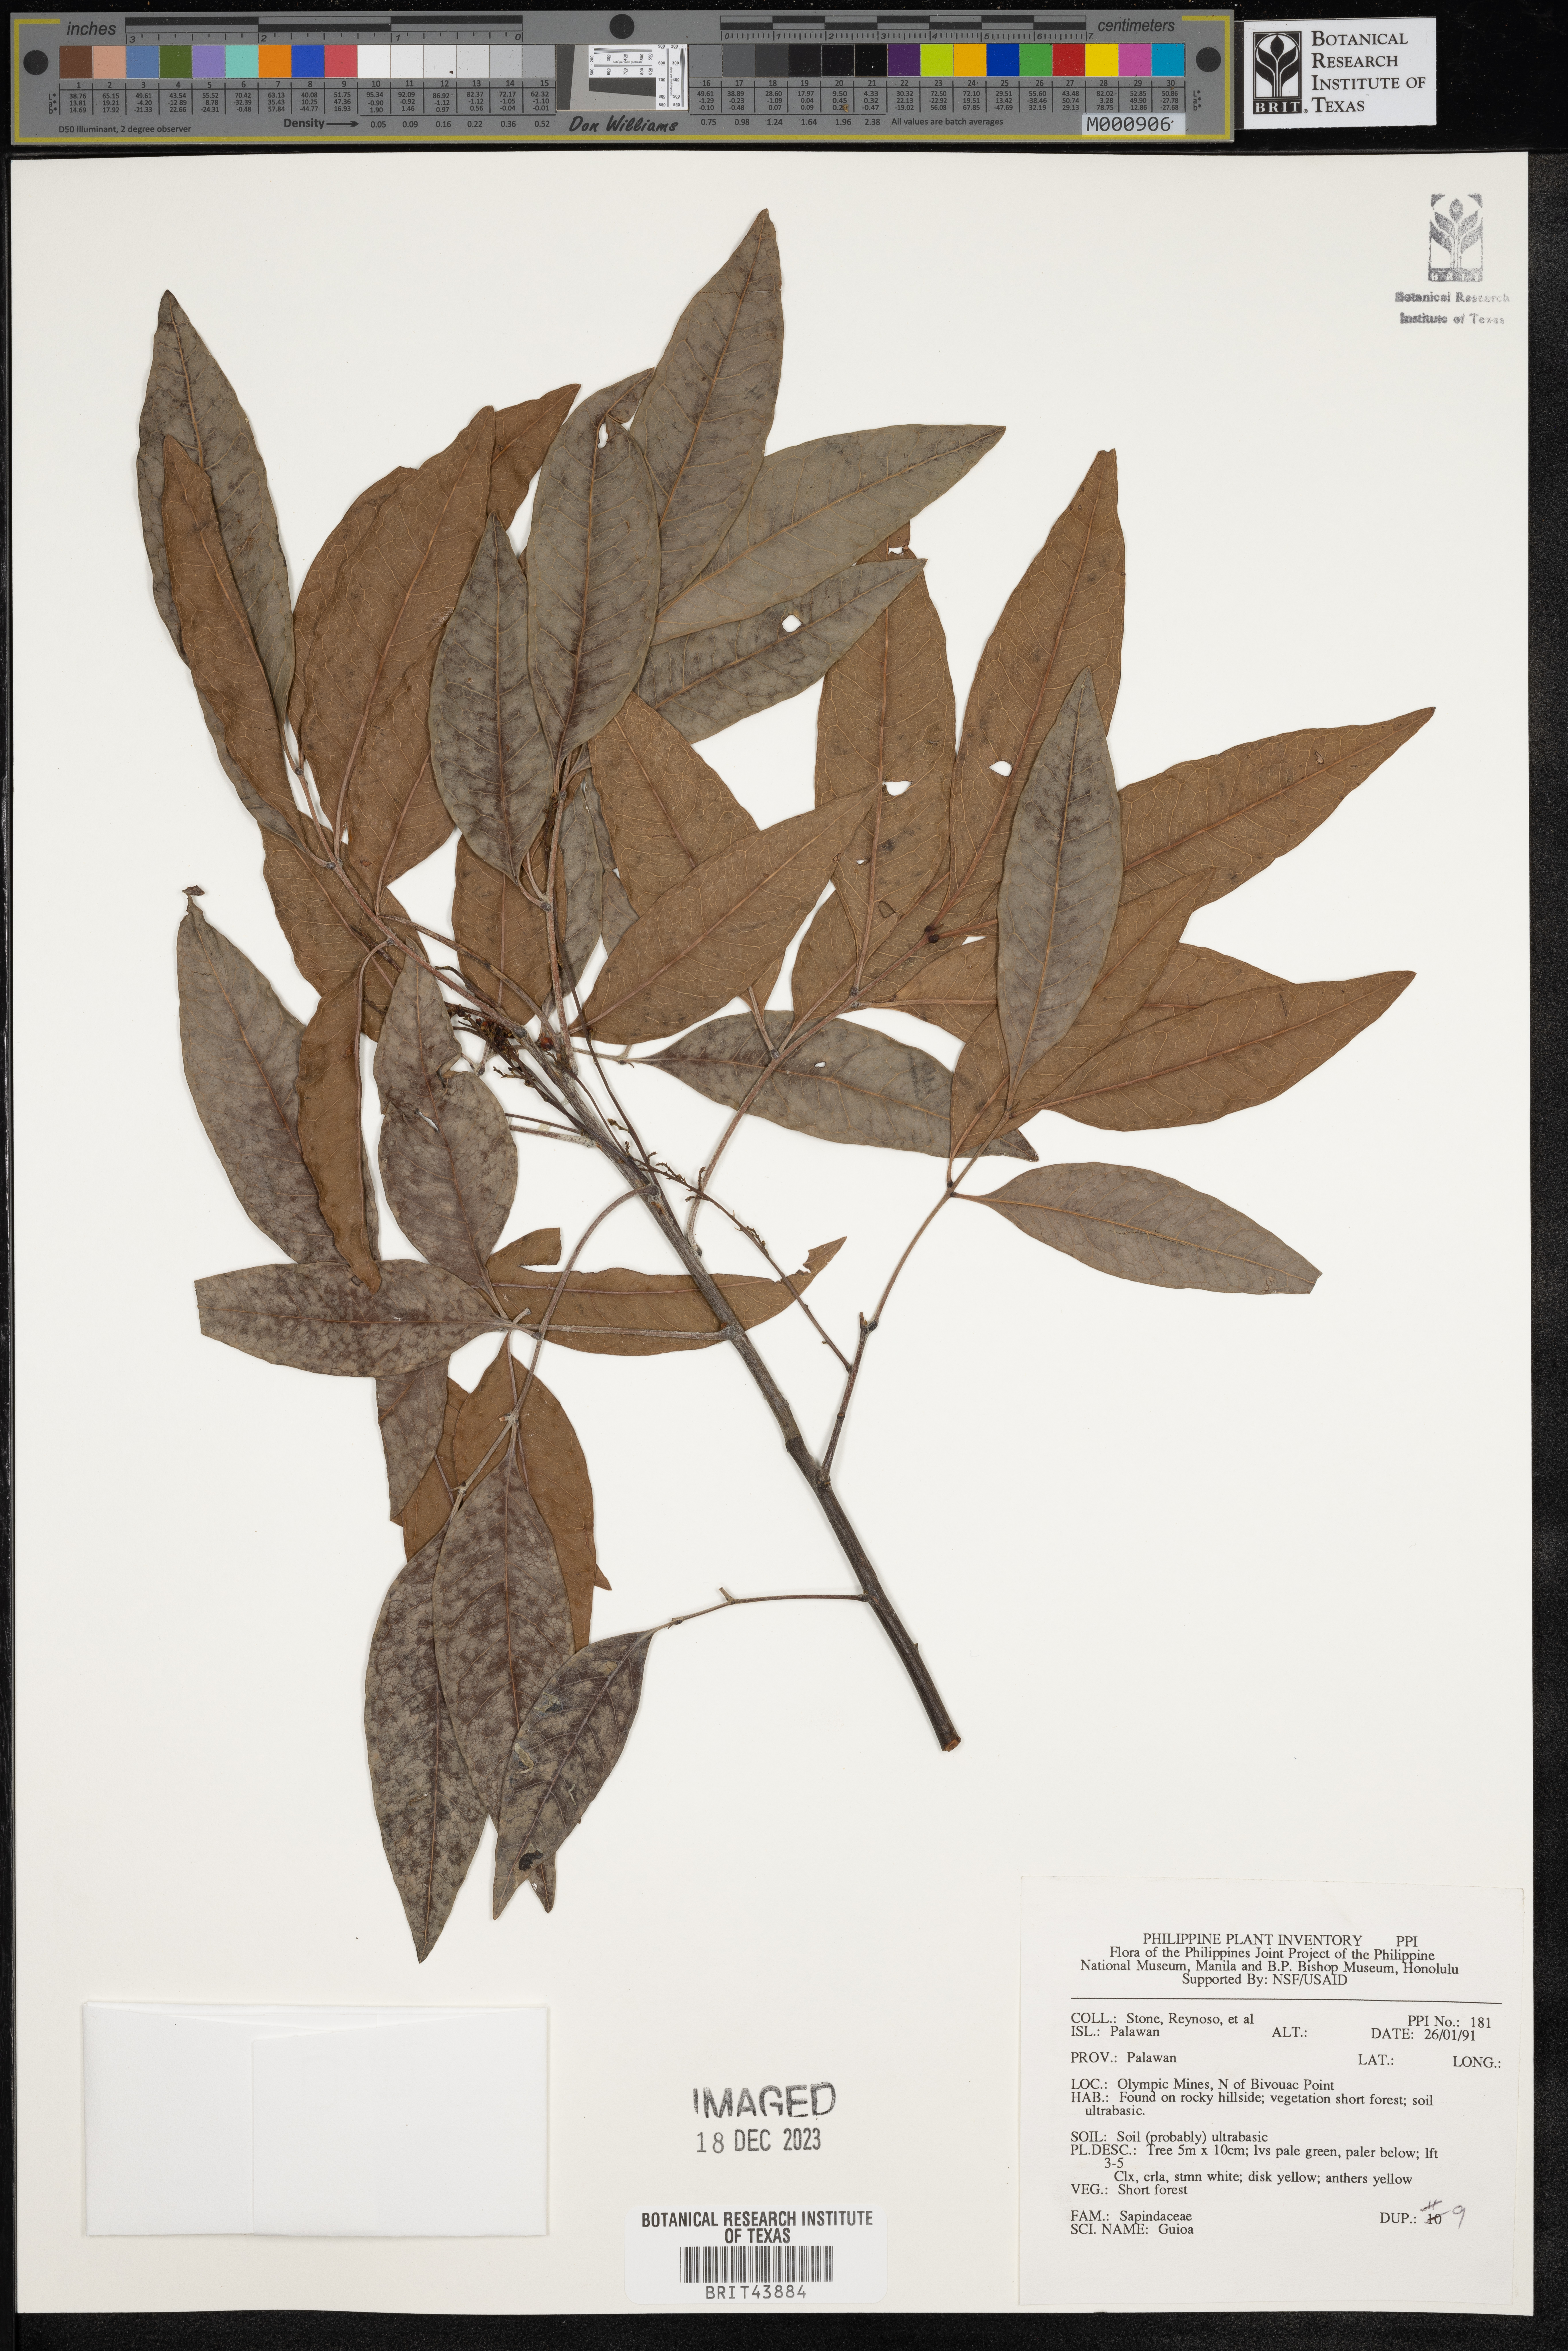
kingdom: Plantae
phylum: Tracheophyta
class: Magnoliopsida
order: Sapindales
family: Sapindaceae
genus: Guioa
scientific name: Guioa
